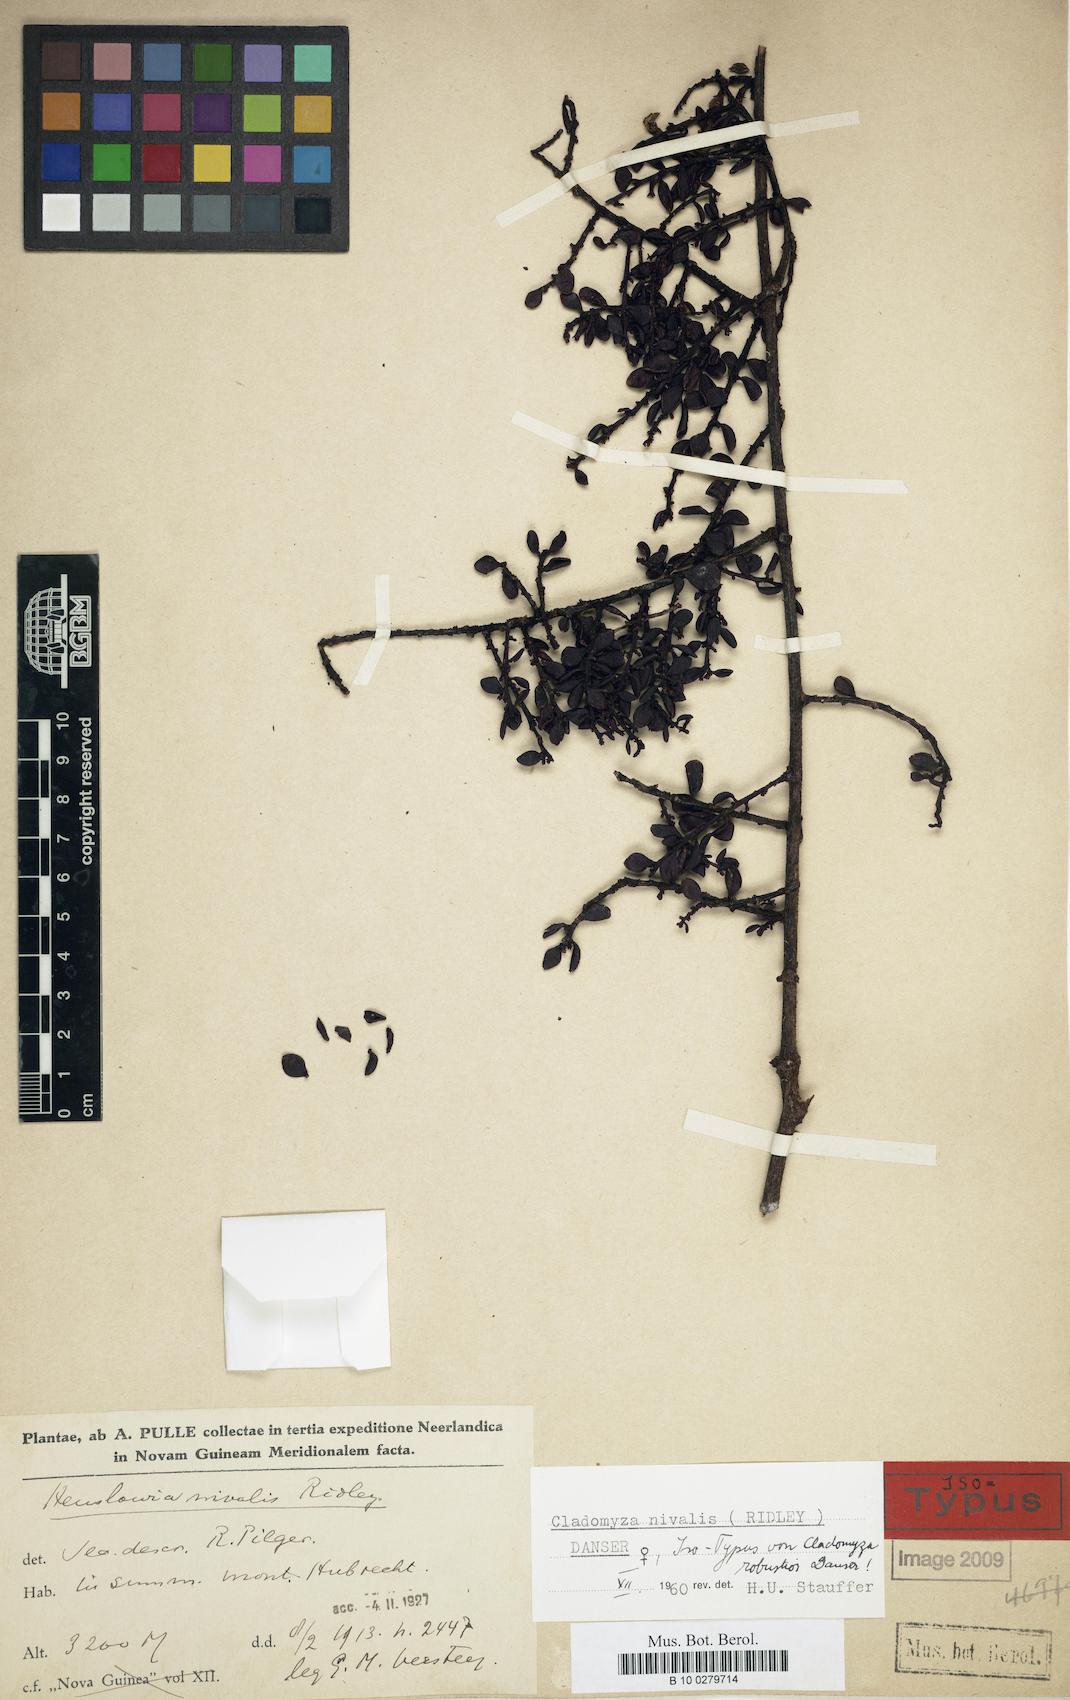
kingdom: Plantae
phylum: Tracheophyta
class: Magnoliopsida
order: Santalales
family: Amphorogynaceae
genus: Cladomyza
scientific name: Cladomyza nivalis
